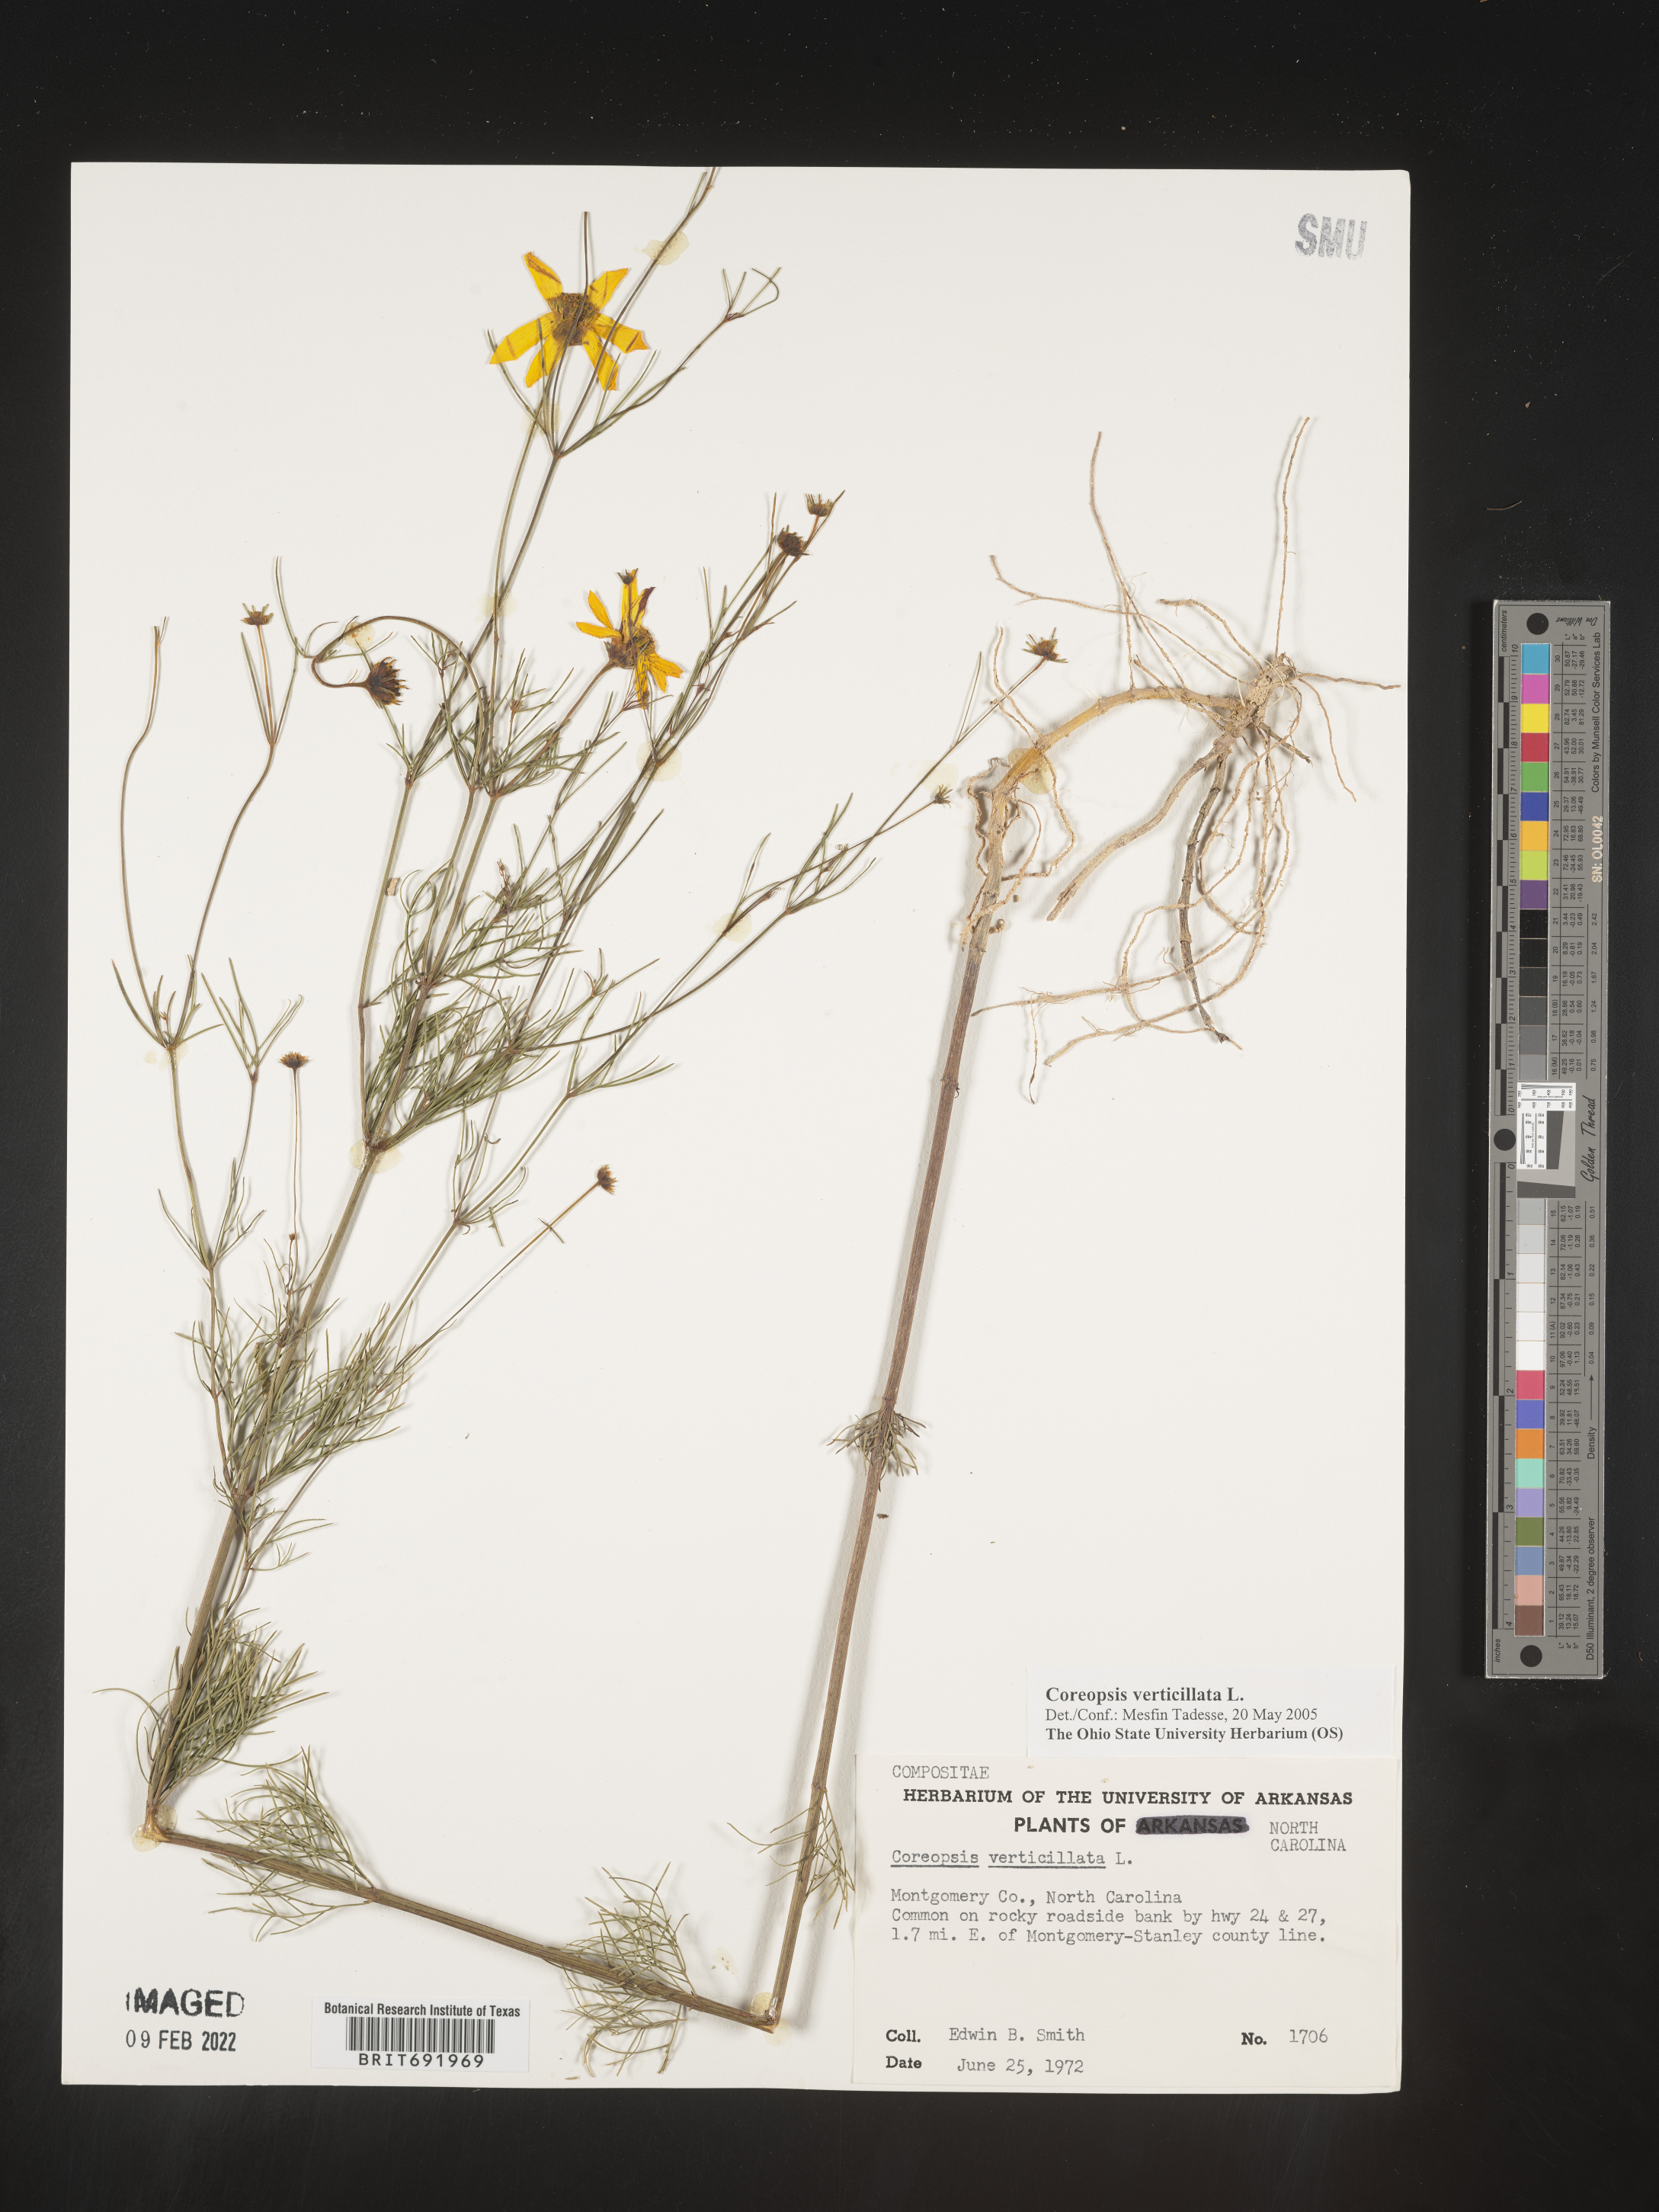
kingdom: Plantae
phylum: Tracheophyta
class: Magnoliopsida
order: Asterales
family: Asteraceae
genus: Coreopsis
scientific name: Coreopsis verticillata
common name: Whorled tickseed
